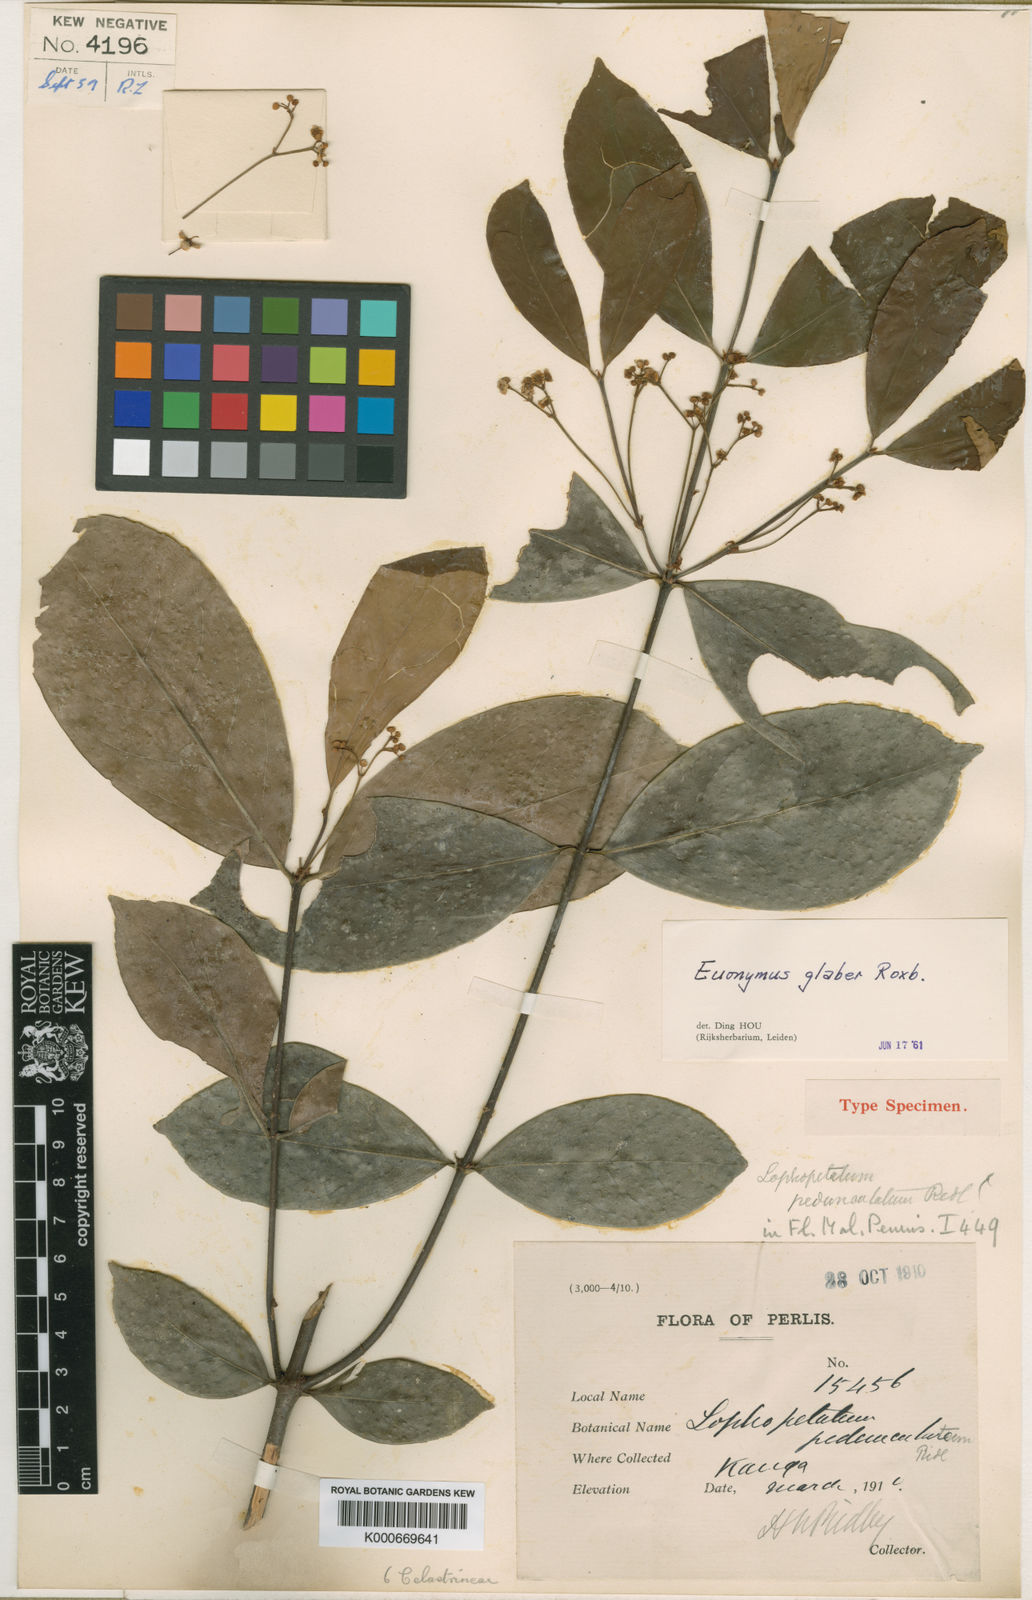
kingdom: Plantae
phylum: Tracheophyta
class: Magnoliopsida
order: Celastrales
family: Celastraceae
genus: Euonymus
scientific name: Euonymus glaber
